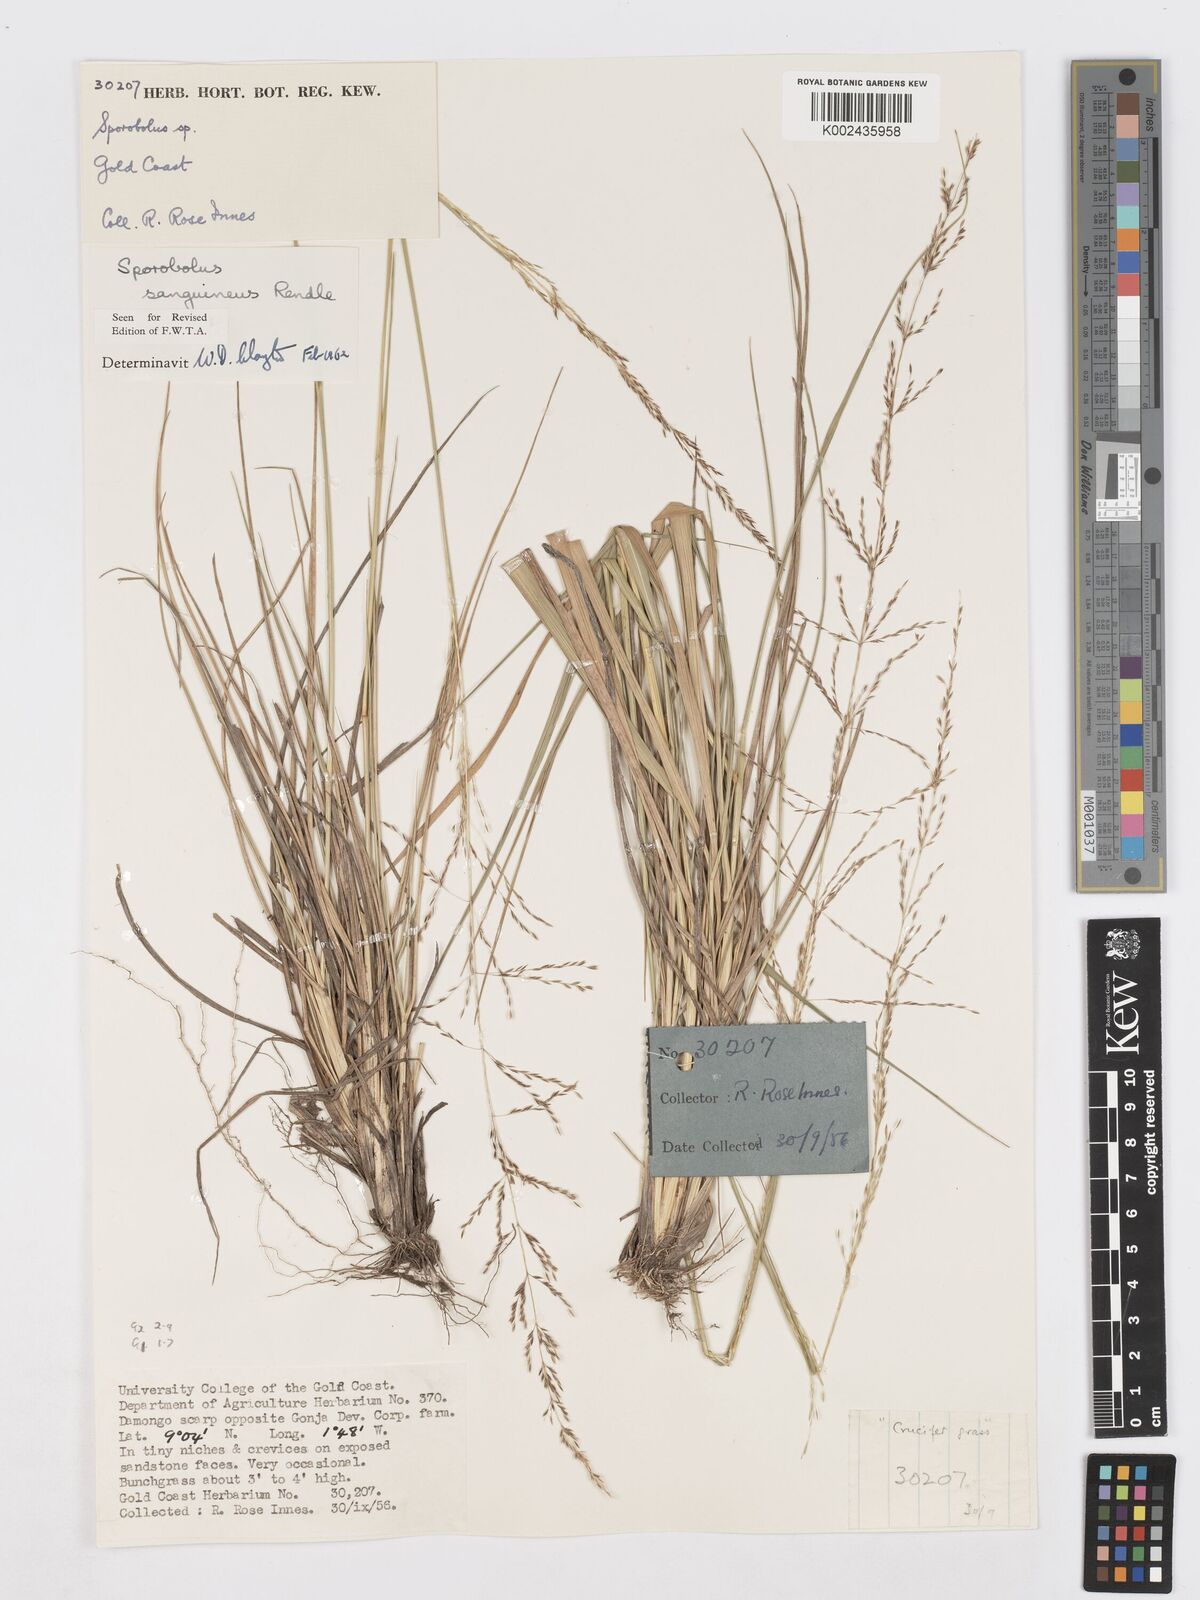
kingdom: Plantae
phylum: Tracheophyta
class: Liliopsida
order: Poales
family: Poaceae
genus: Sporobolus
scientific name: Sporobolus sanguineus
